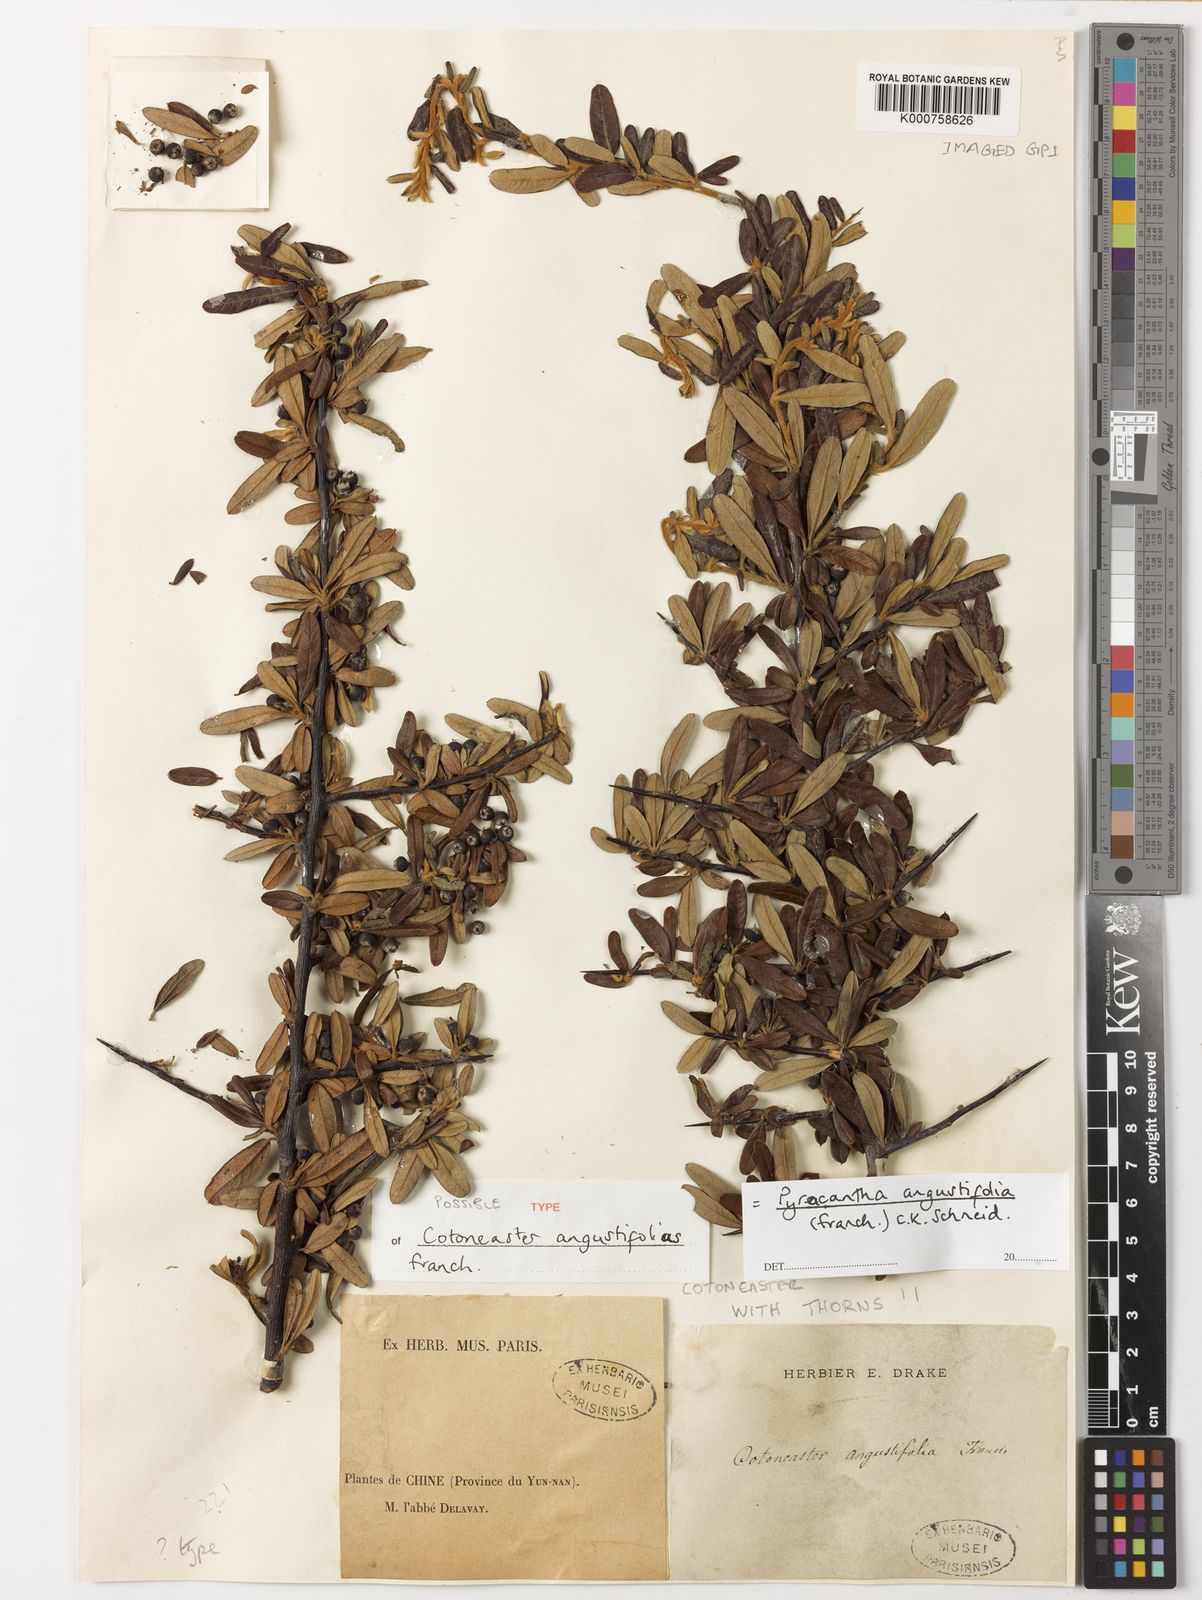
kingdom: Plantae
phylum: Tracheophyta
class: Magnoliopsida
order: Rosales
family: Rosaceae
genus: Pyracantha
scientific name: Pyracantha angustifolia
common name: Narrowleaf firethorn
